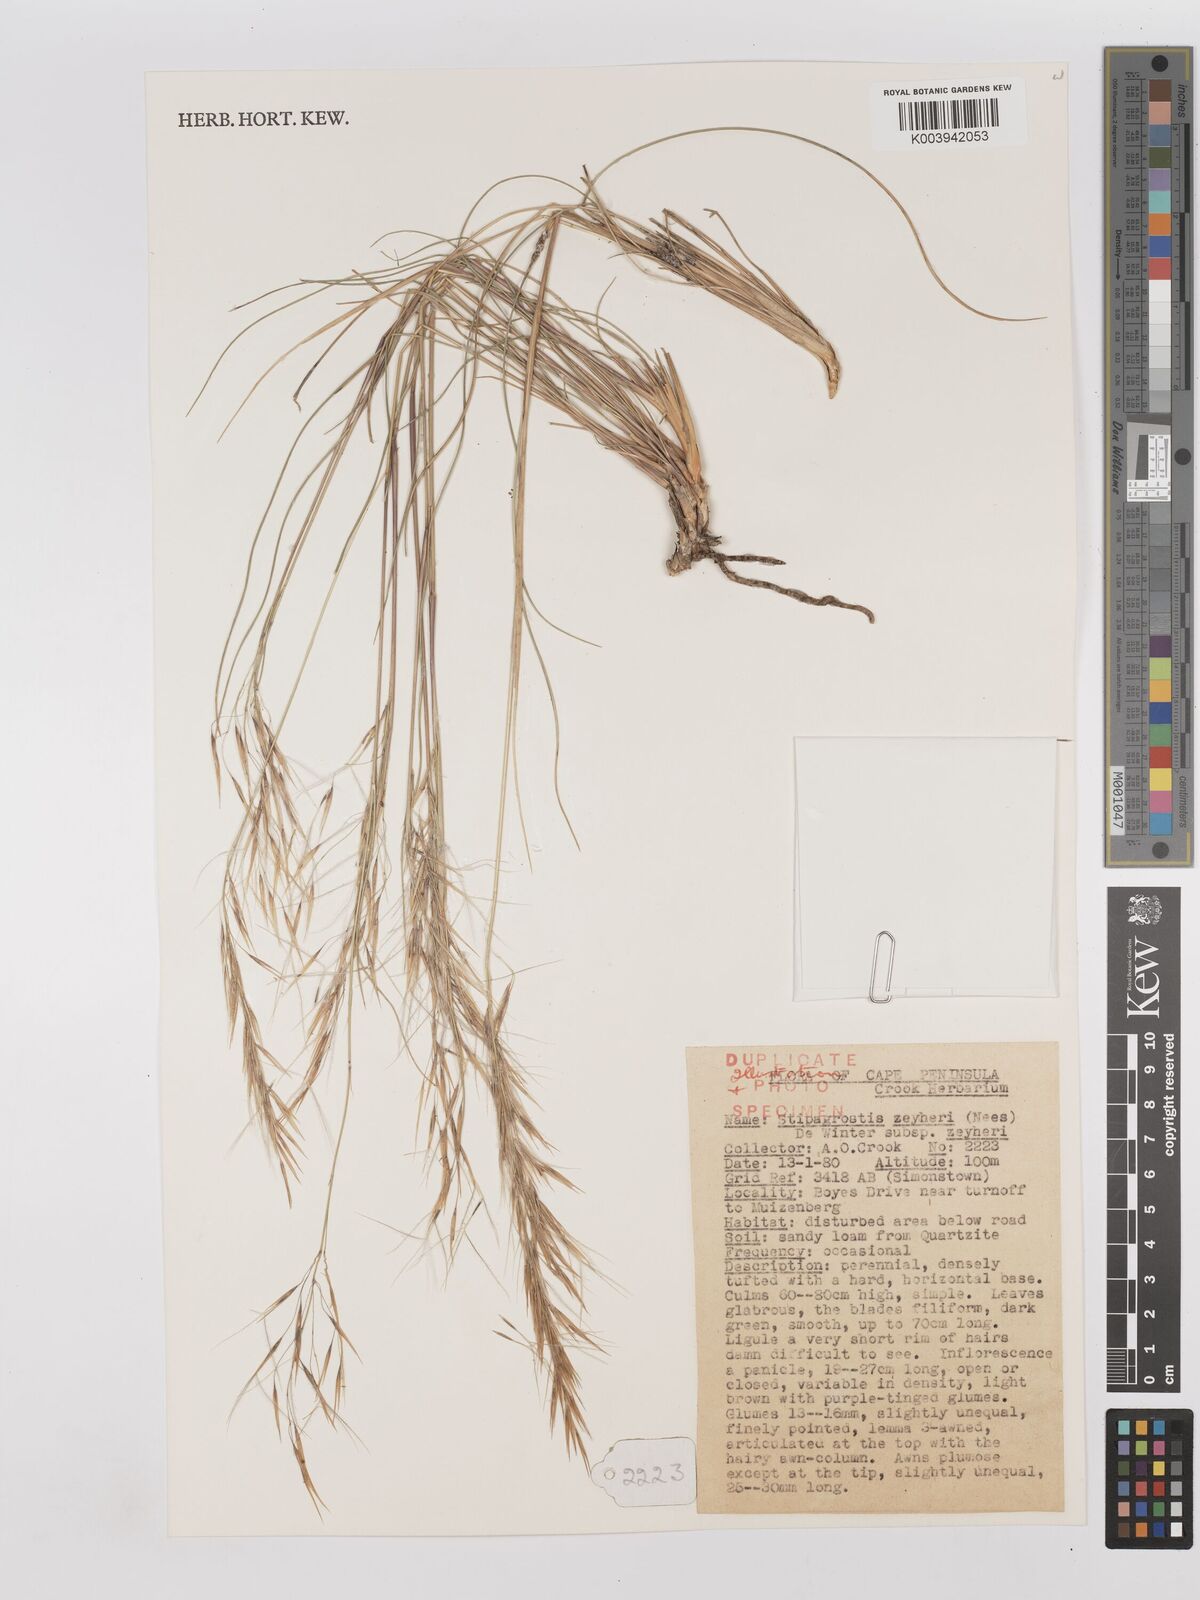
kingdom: Plantae
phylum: Tracheophyta
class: Liliopsida
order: Poales
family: Poaceae
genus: Stipagrostis
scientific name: Stipagrostis zeyheri
